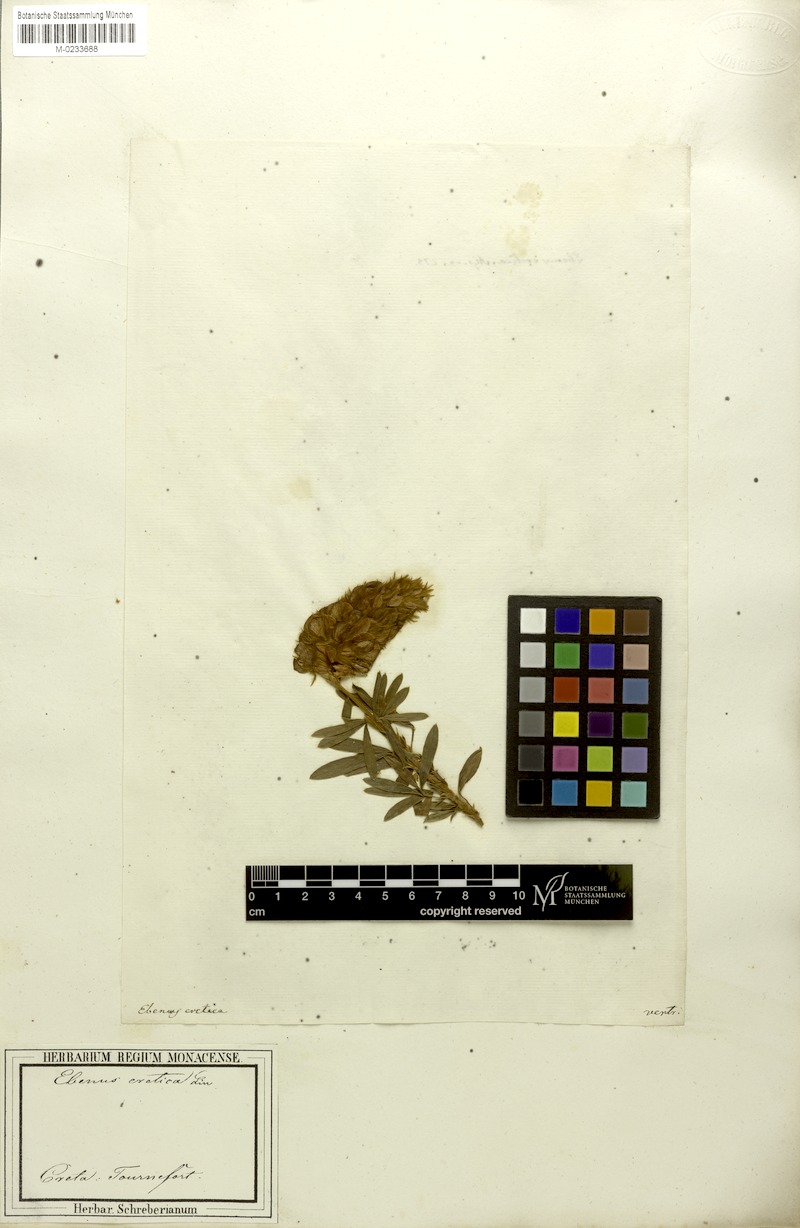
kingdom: Plantae
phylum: Tracheophyta
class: Magnoliopsida
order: Fabales
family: Fabaceae
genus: Ebenus
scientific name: Ebenus cretica
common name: Cretan silver bush
